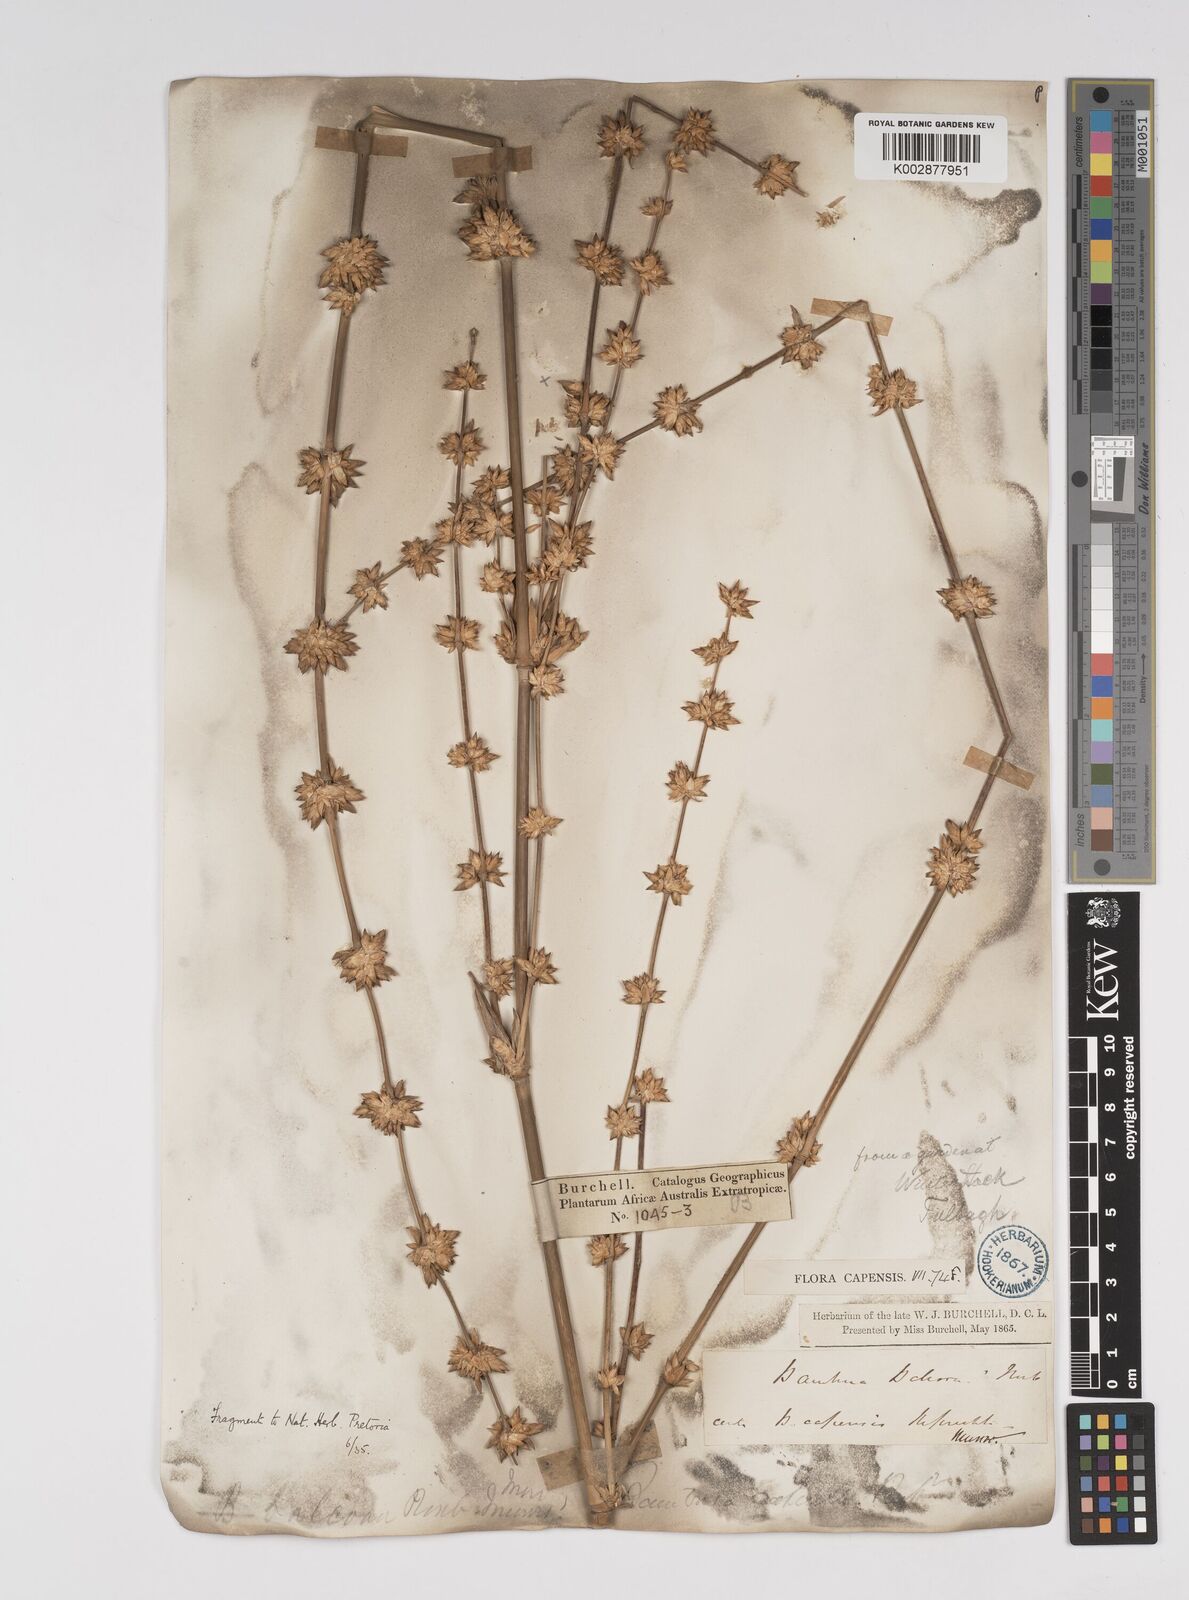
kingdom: Plantae
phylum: Tracheophyta
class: Liliopsida
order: Poales
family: Poaceae
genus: Bambusa
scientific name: Bambusa balcooa
